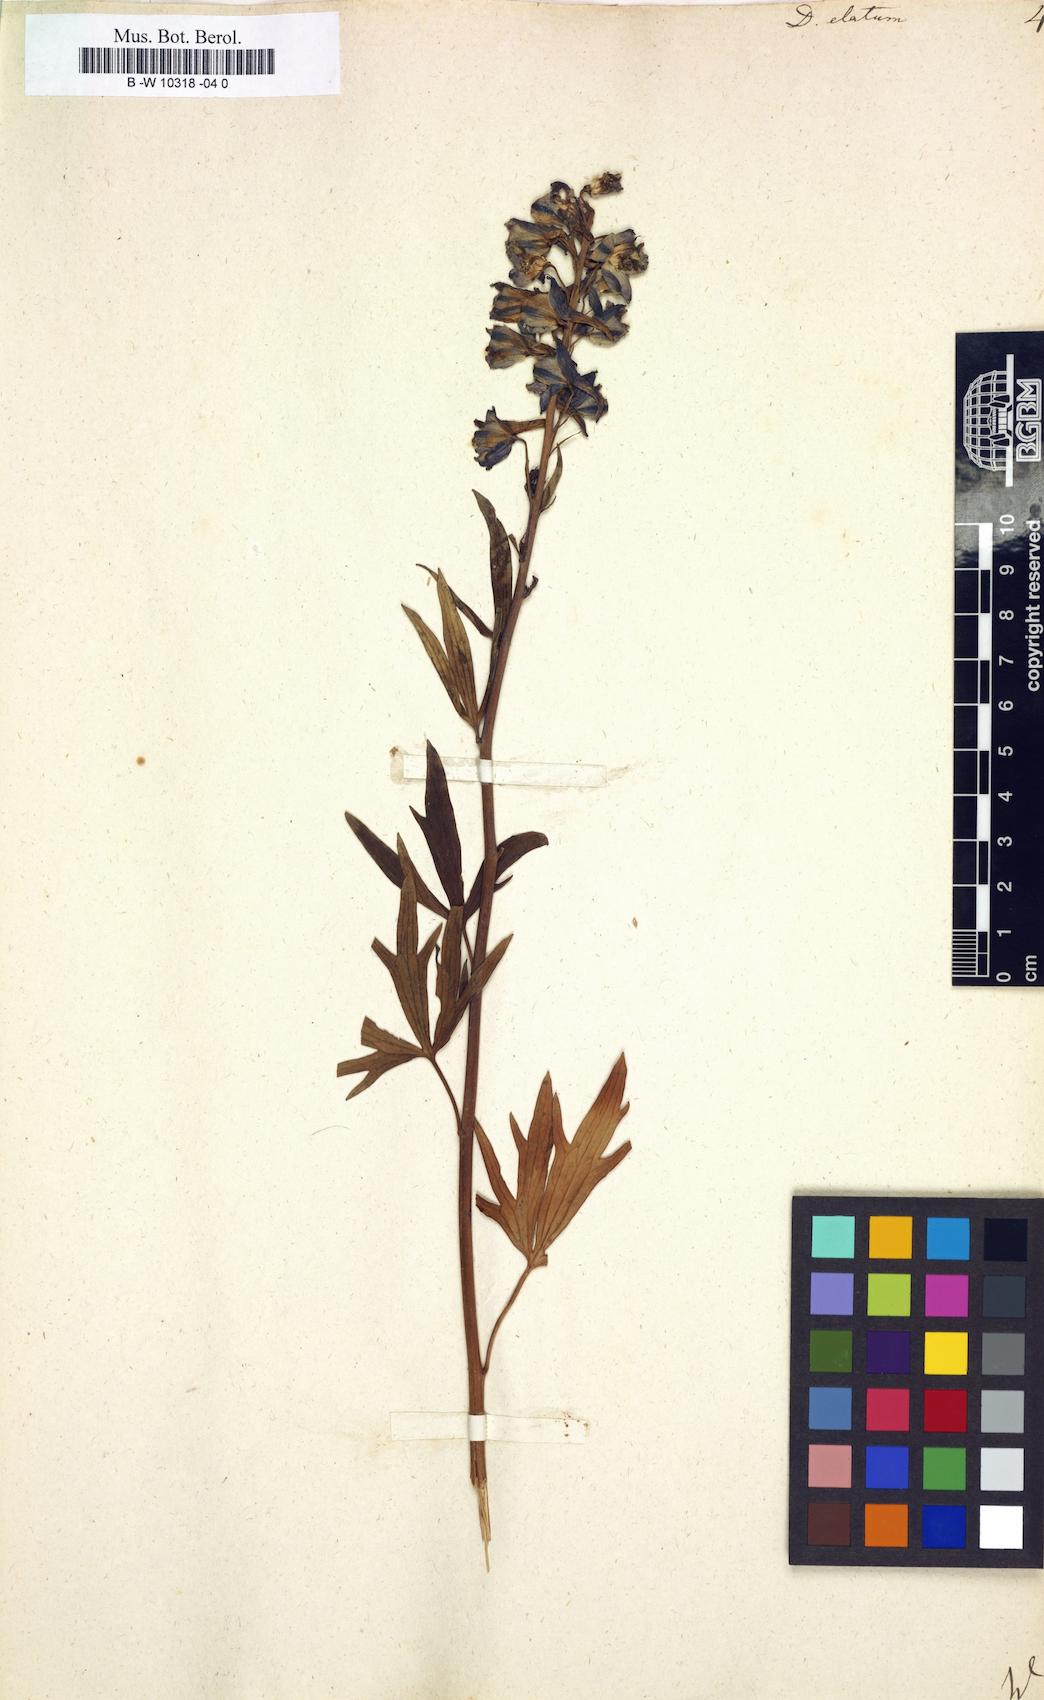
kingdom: Plantae
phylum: Tracheophyta
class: Magnoliopsida
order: Ranunculales
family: Ranunculaceae
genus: Delphinium
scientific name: Delphinium elatum
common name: Candle larkspur
